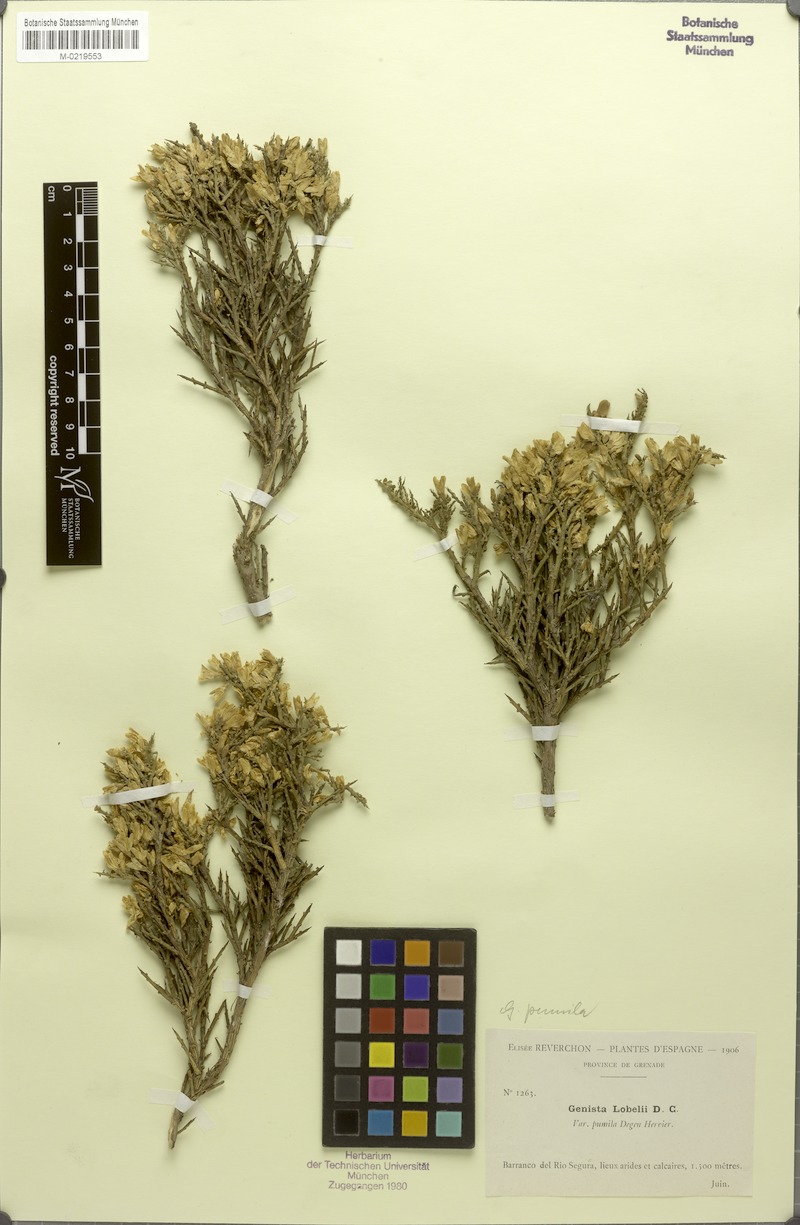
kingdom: Plantae
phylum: Tracheophyta
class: Magnoliopsida
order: Fabales
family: Fabaceae
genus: Genista
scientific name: Genista versicolor
